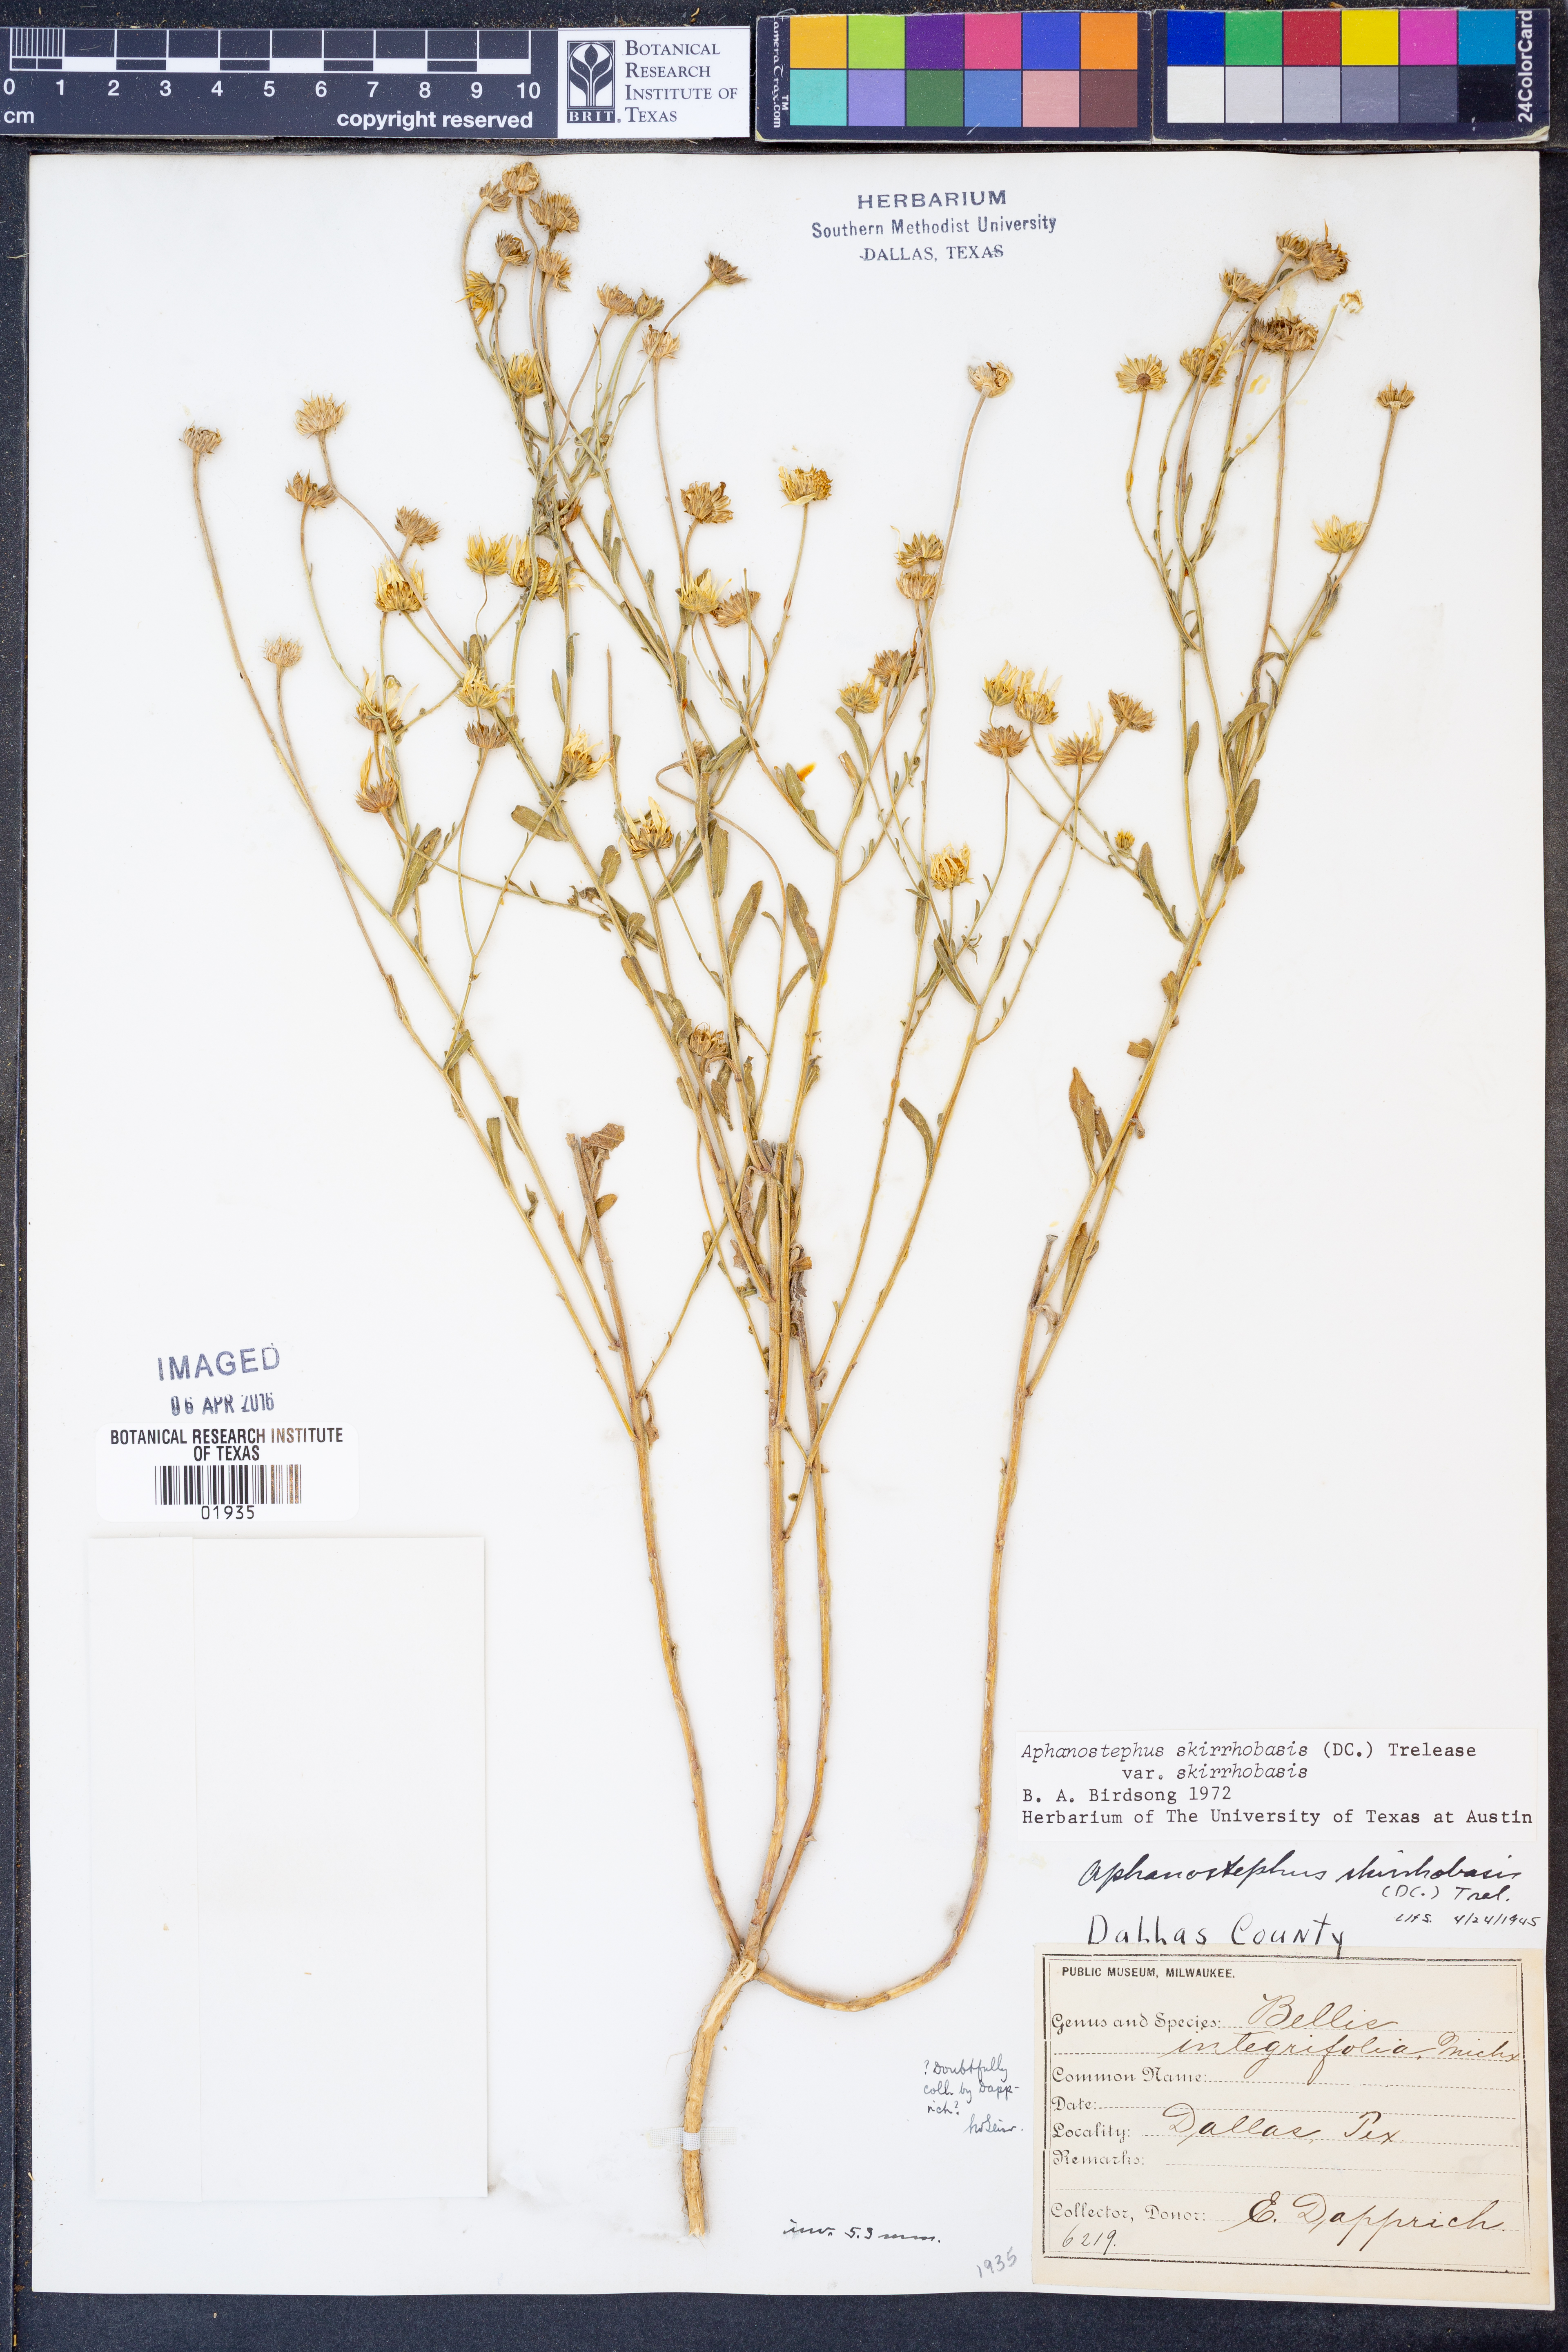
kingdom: Plantae
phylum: Tracheophyta
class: Magnoliopsida
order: Asterales
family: Asteraceae
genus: Aphanostephus
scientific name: Aphanostephus skirrhobasis
